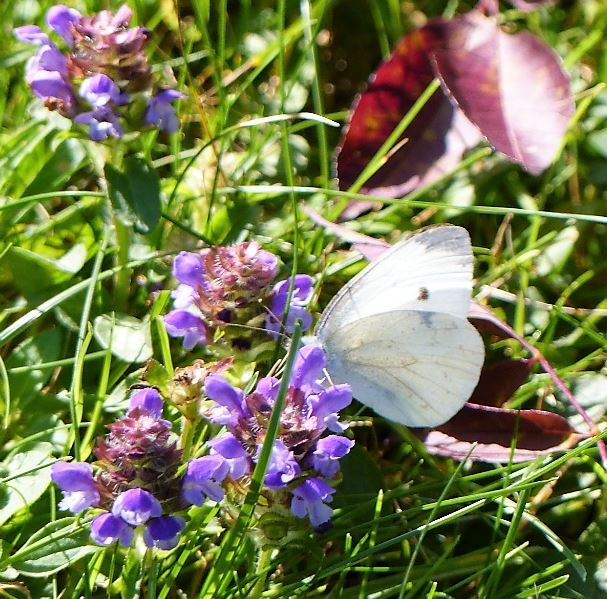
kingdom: Animalia
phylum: Arthropoda
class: Insecta
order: Lepidoptera
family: Pieridae
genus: Pieris
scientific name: Pieris rapae
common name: Cabbage White
